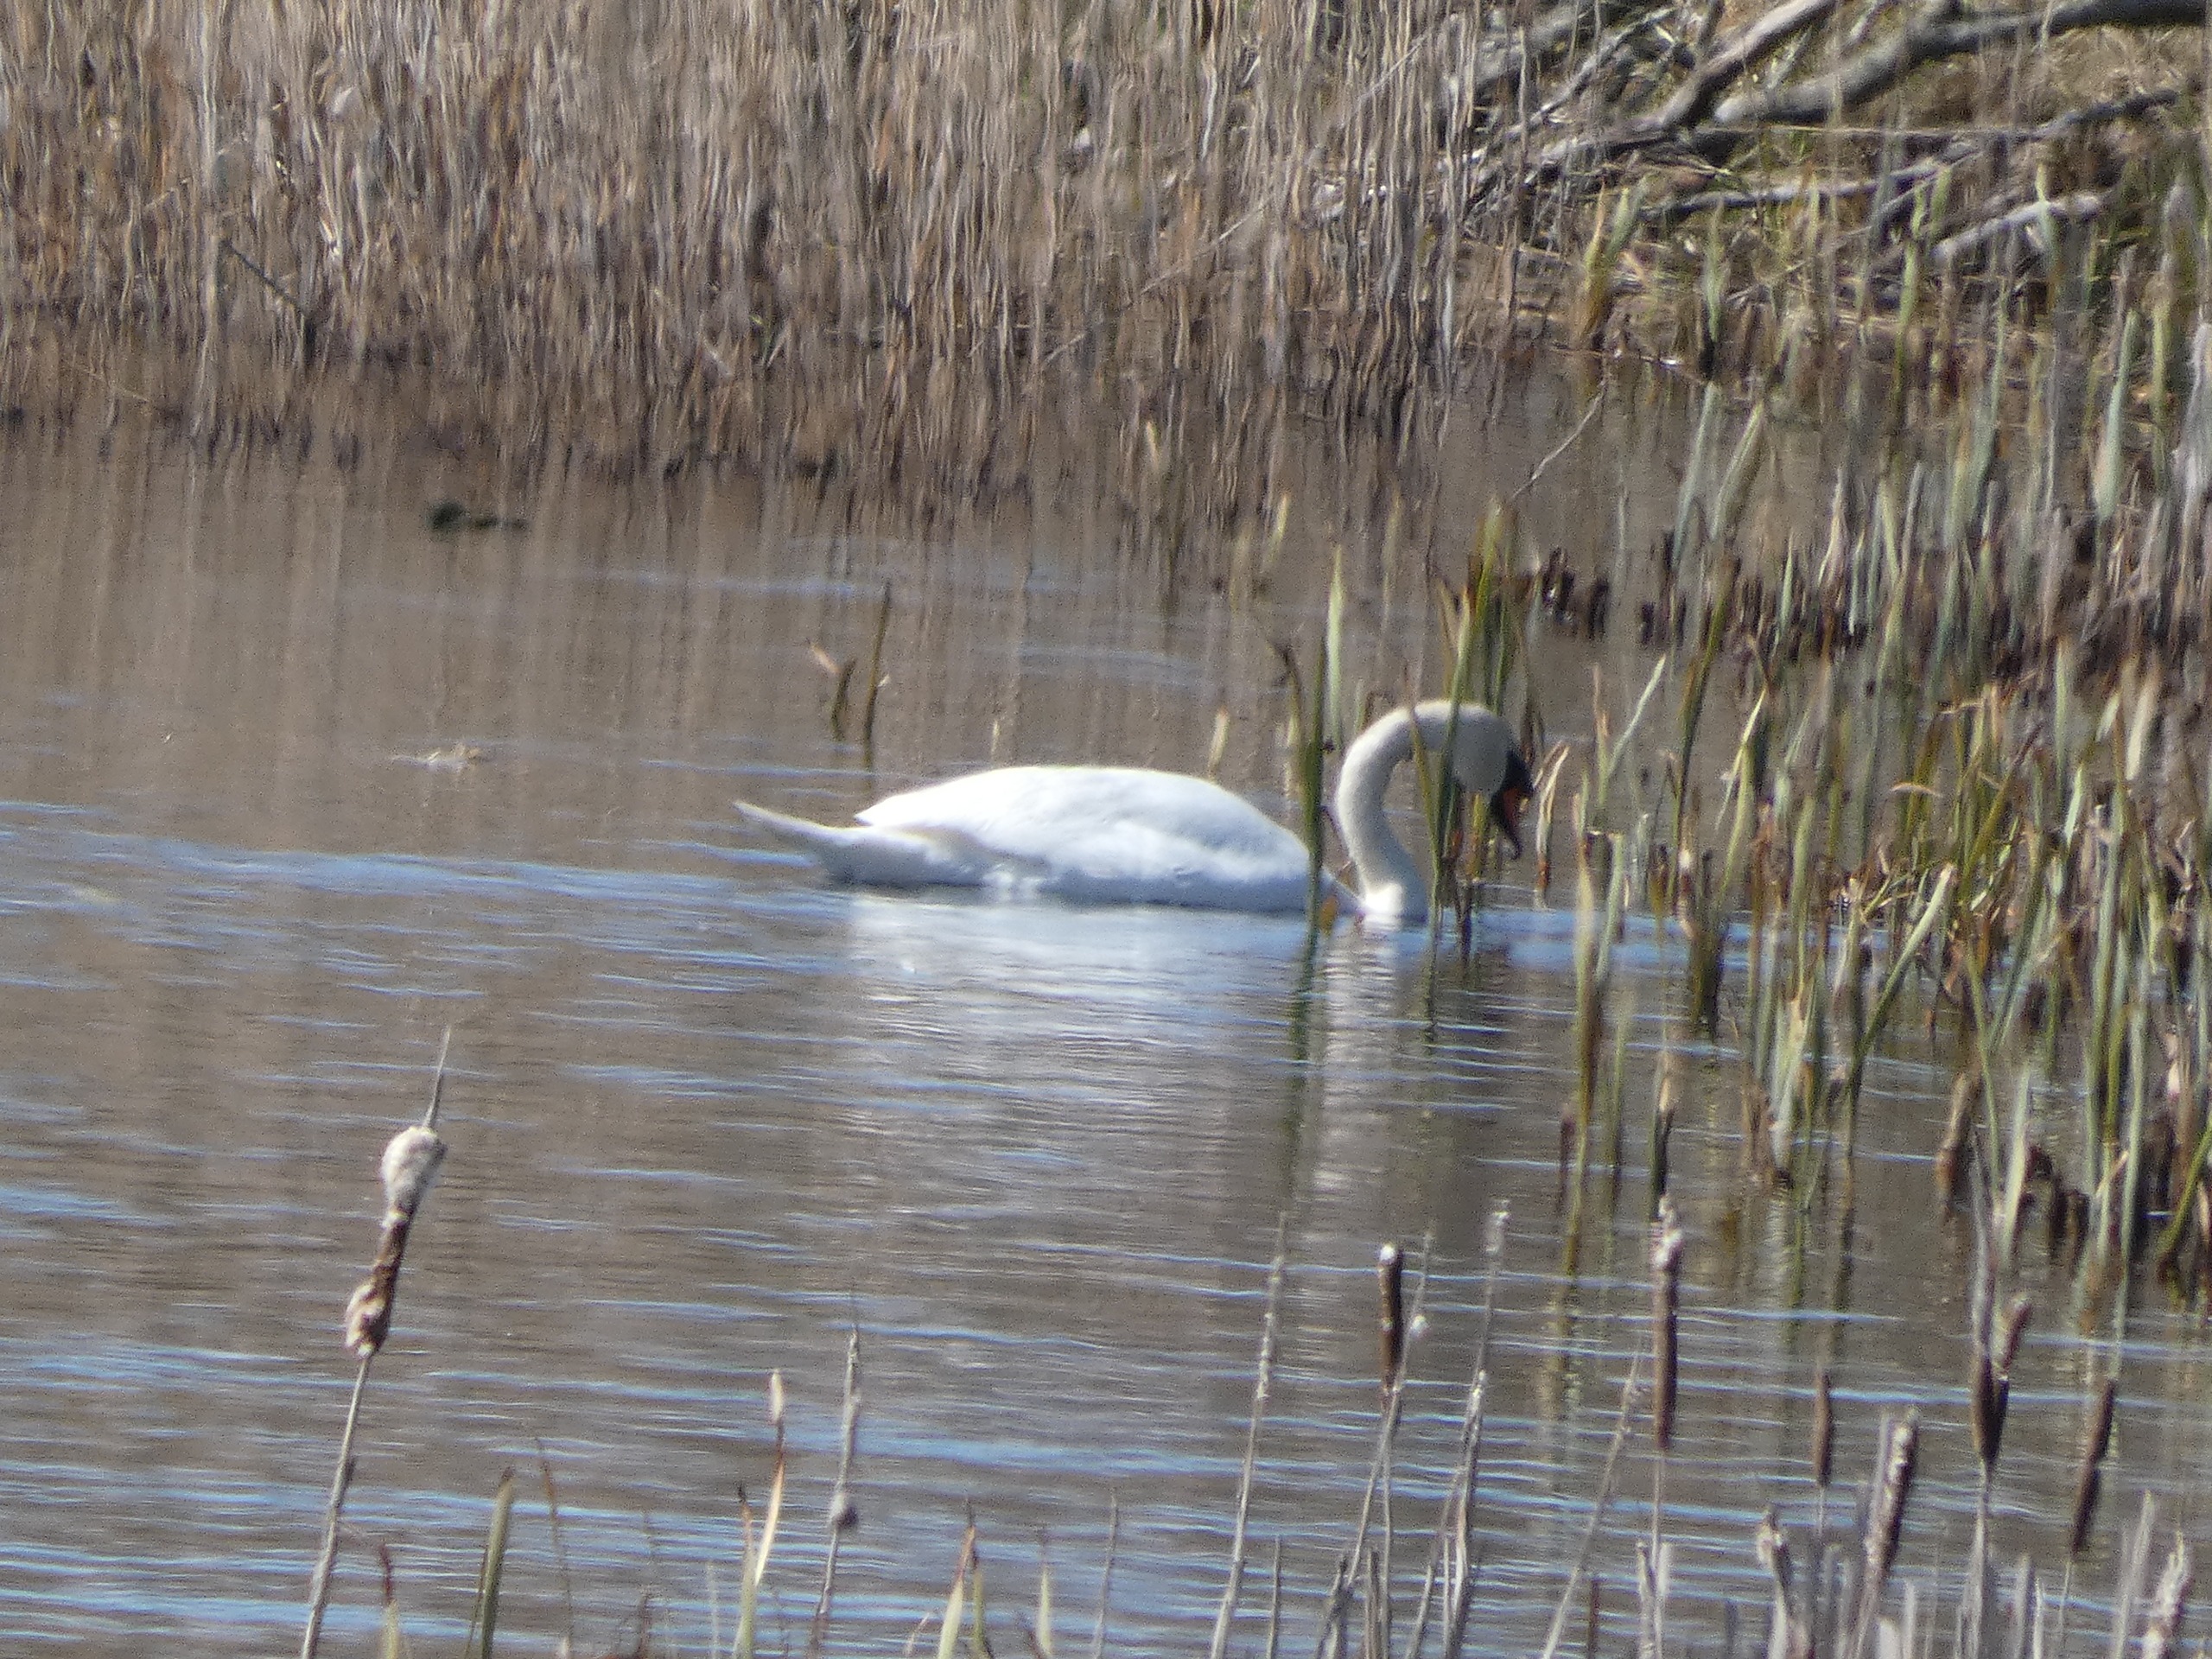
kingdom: Animalia
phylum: Chordata
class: Aves
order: Anseriformes
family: Anatidae
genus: Cygnus
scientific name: Cygnus olor
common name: Knopsvane
